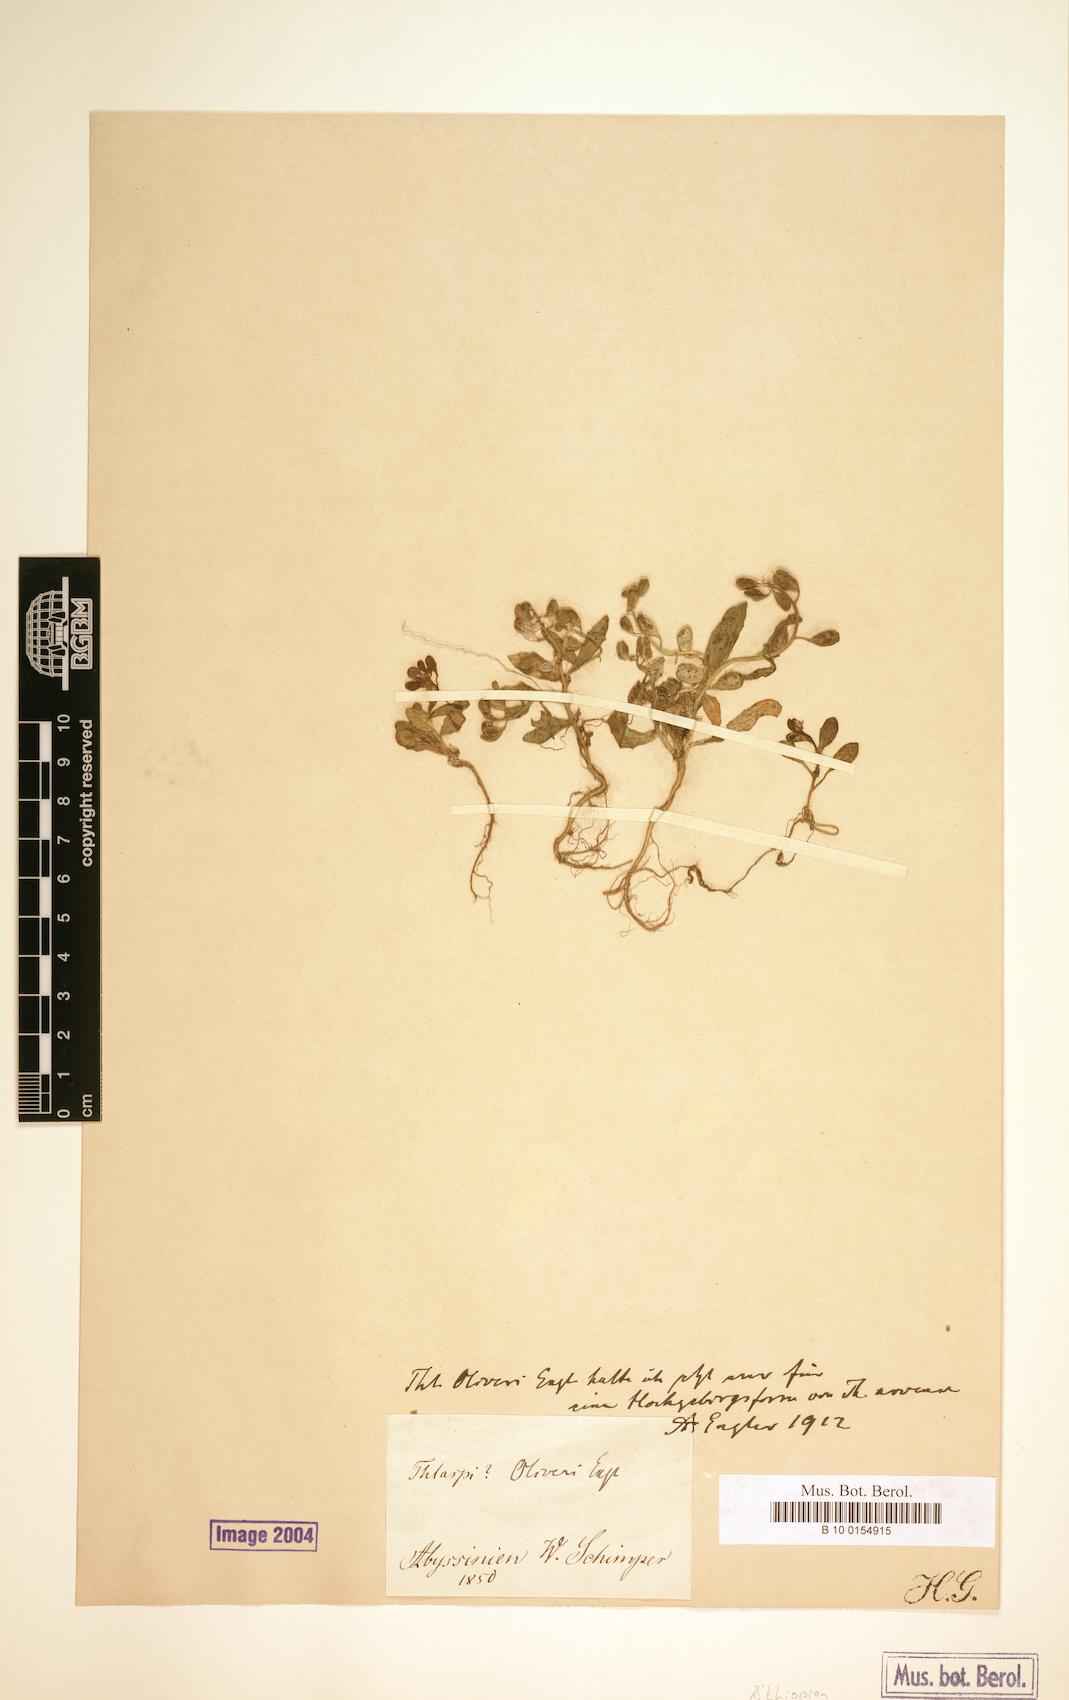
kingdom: Plantae
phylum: Tracheophyta
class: Magnoliopsida
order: Brassicales
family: Brassicaceae
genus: Mummenhoffia
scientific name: Mummenhoffia oliveri
